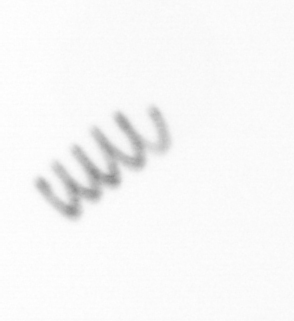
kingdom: Chromista
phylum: Ochrophyta
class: Bacillariophyceae
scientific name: Bacillariophyceae
